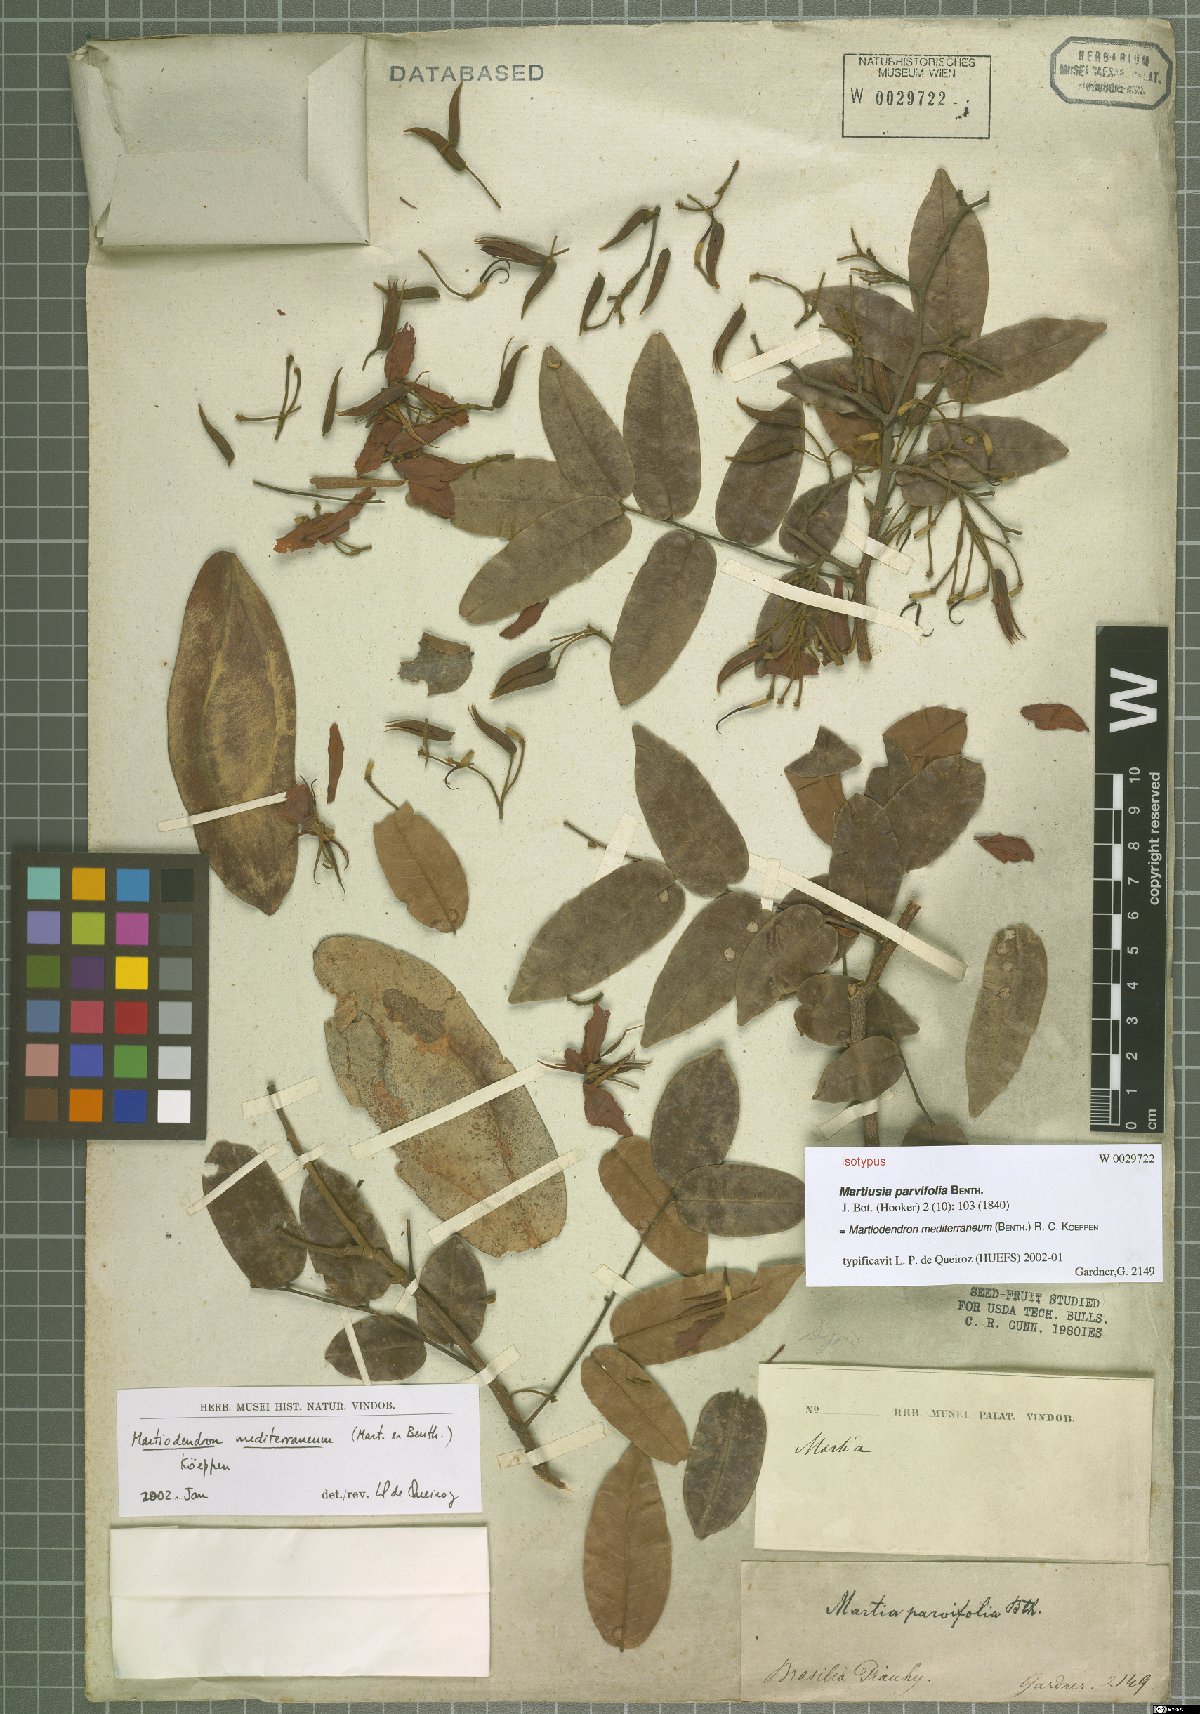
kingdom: Plantae
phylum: Tracheophyta
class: Magnoliopsida
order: Fabales
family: Fabaceae
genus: Martiodendron
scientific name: Martiodendron mediterraneum
